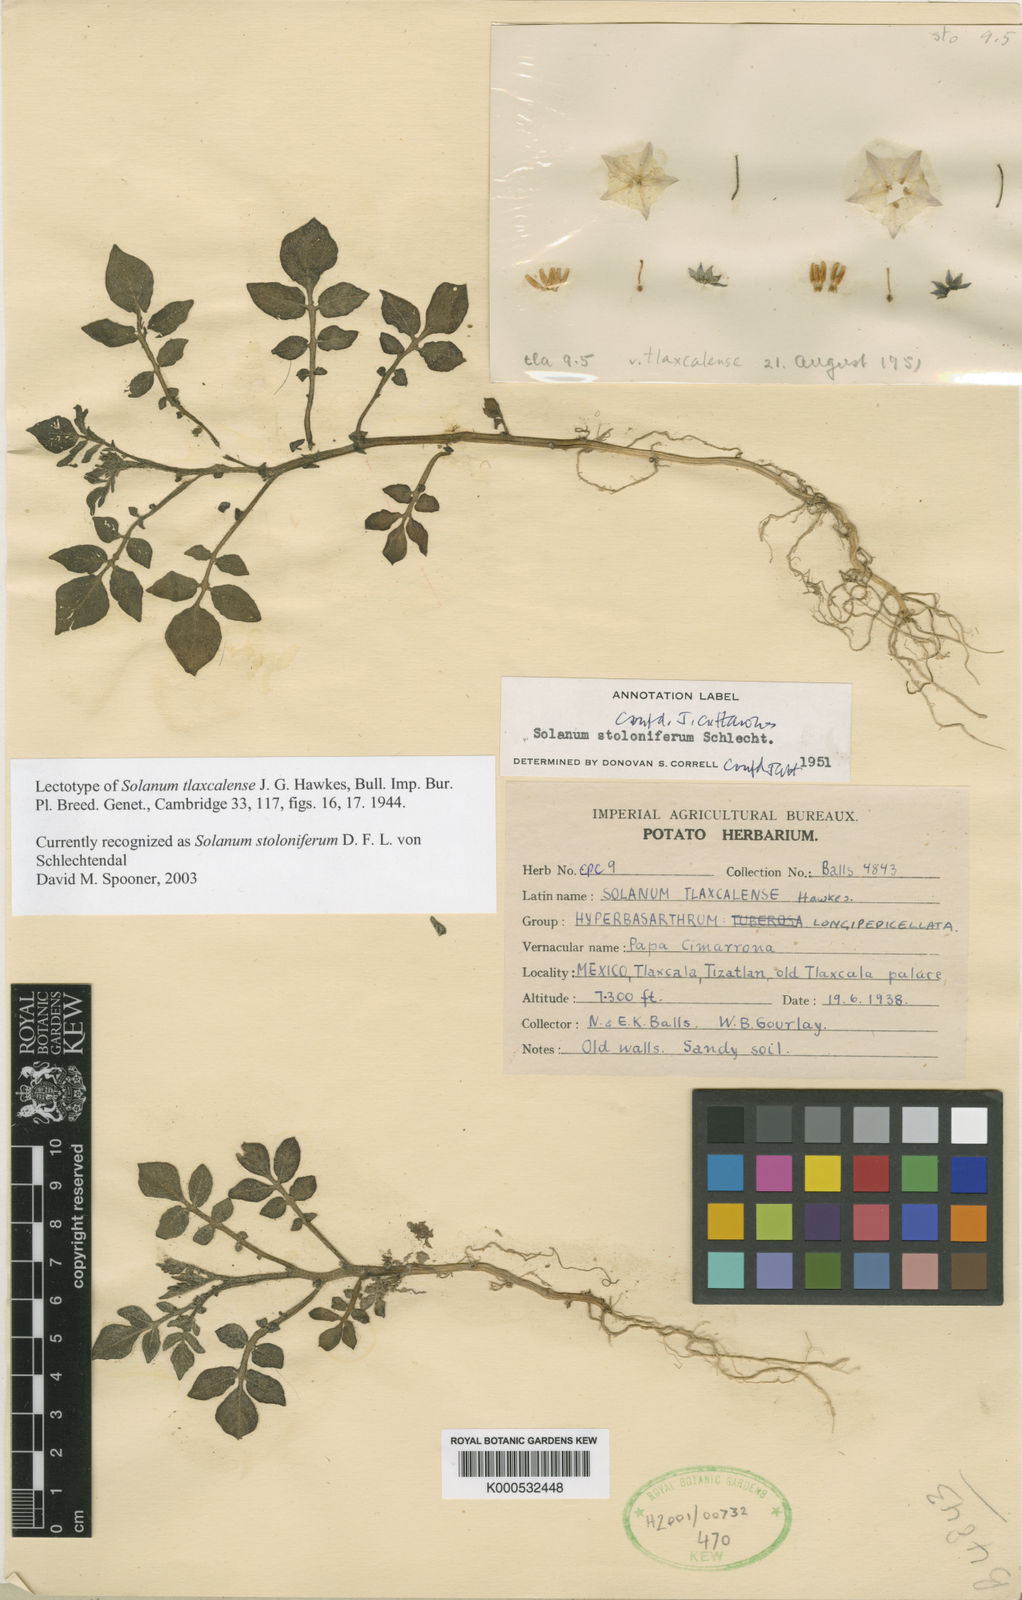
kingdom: Plantae
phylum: Tracheophyta
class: Magnoliopsida
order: Solanales
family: Solanaceae
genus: Solanum
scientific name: Solanum
